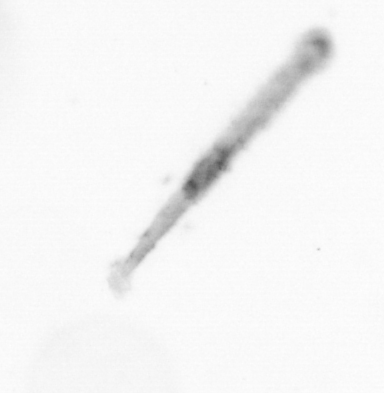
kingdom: Chromista
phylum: Ochrophyta
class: Bacillariophyceae
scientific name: Bacillariophyceae
